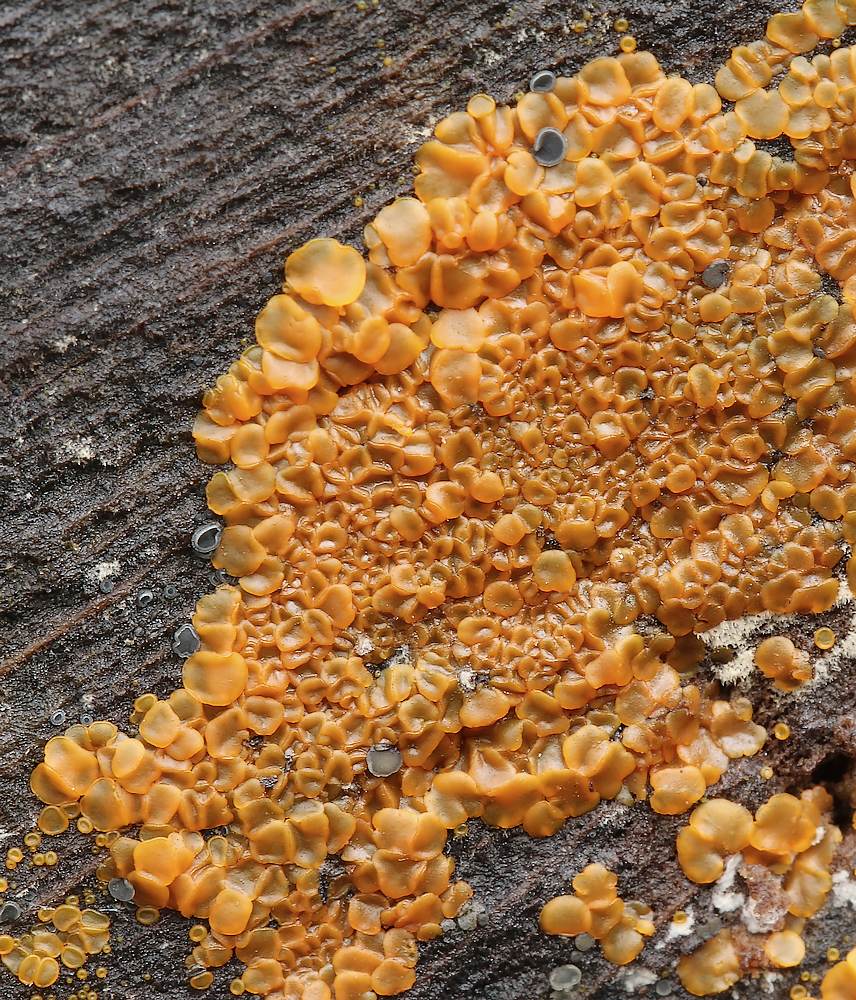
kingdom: Fungi
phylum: Ascomycota
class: Orbiliomycetes
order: Orbiliales
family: Orbiliaceae
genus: Orbilia
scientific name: Orbilia xanthostigma
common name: krumsporet voksskive
